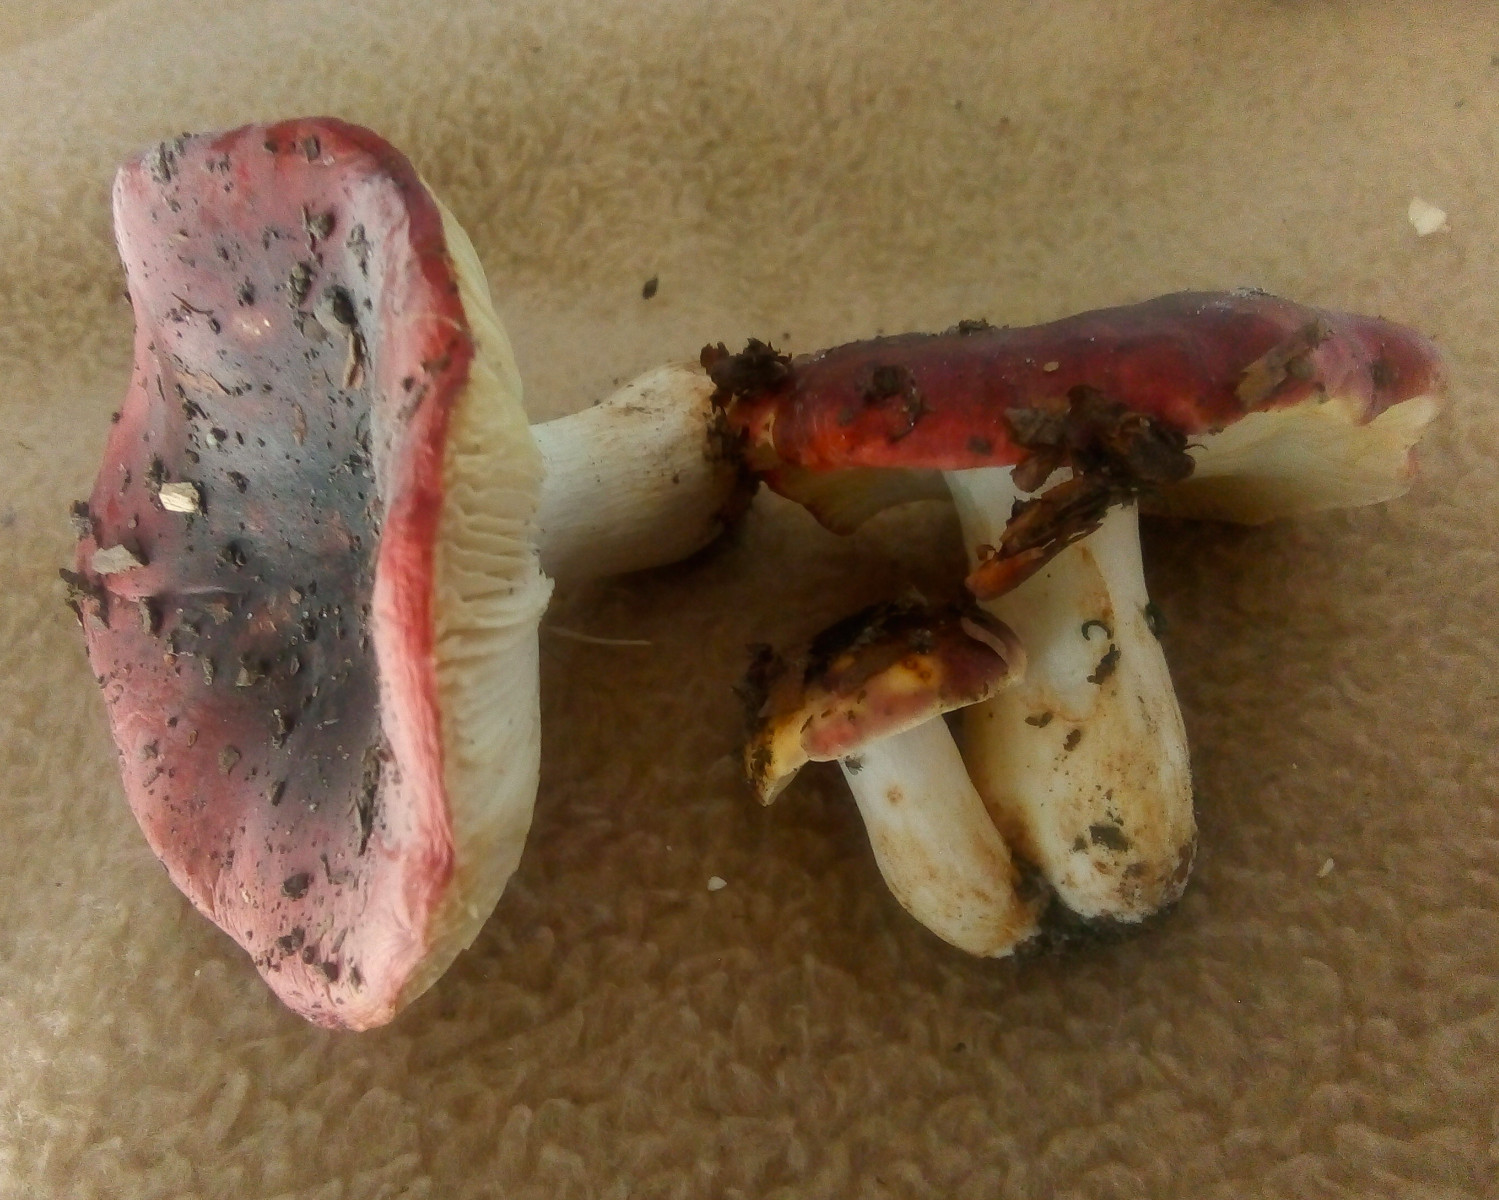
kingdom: Fungi
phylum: Basidiomycota
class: Agaricomycetes
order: Russulales
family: Russulaceae
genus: Russula
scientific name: Russula atropurpurea
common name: purpurbroget skørhat
